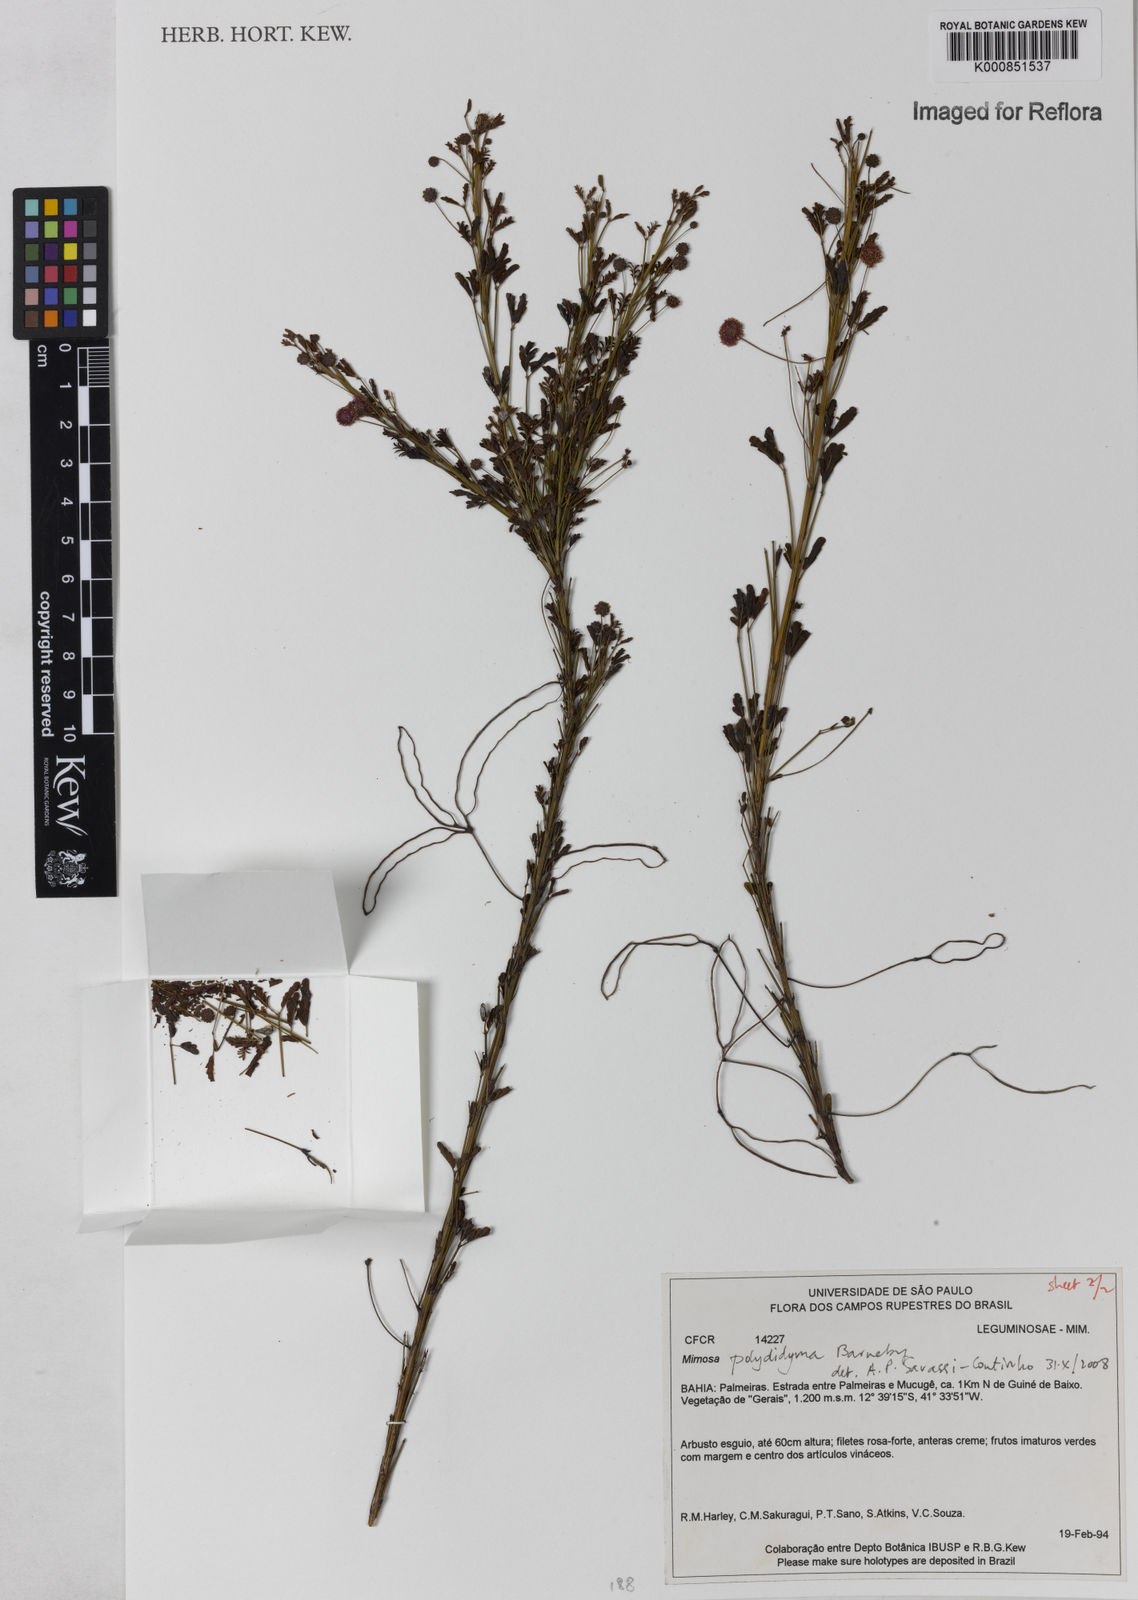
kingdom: Plantae
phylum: Tracheophyta
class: Magnoliopsida
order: Fabales
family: Fabaceae
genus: Mimosa
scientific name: Mimosa polydidyma
